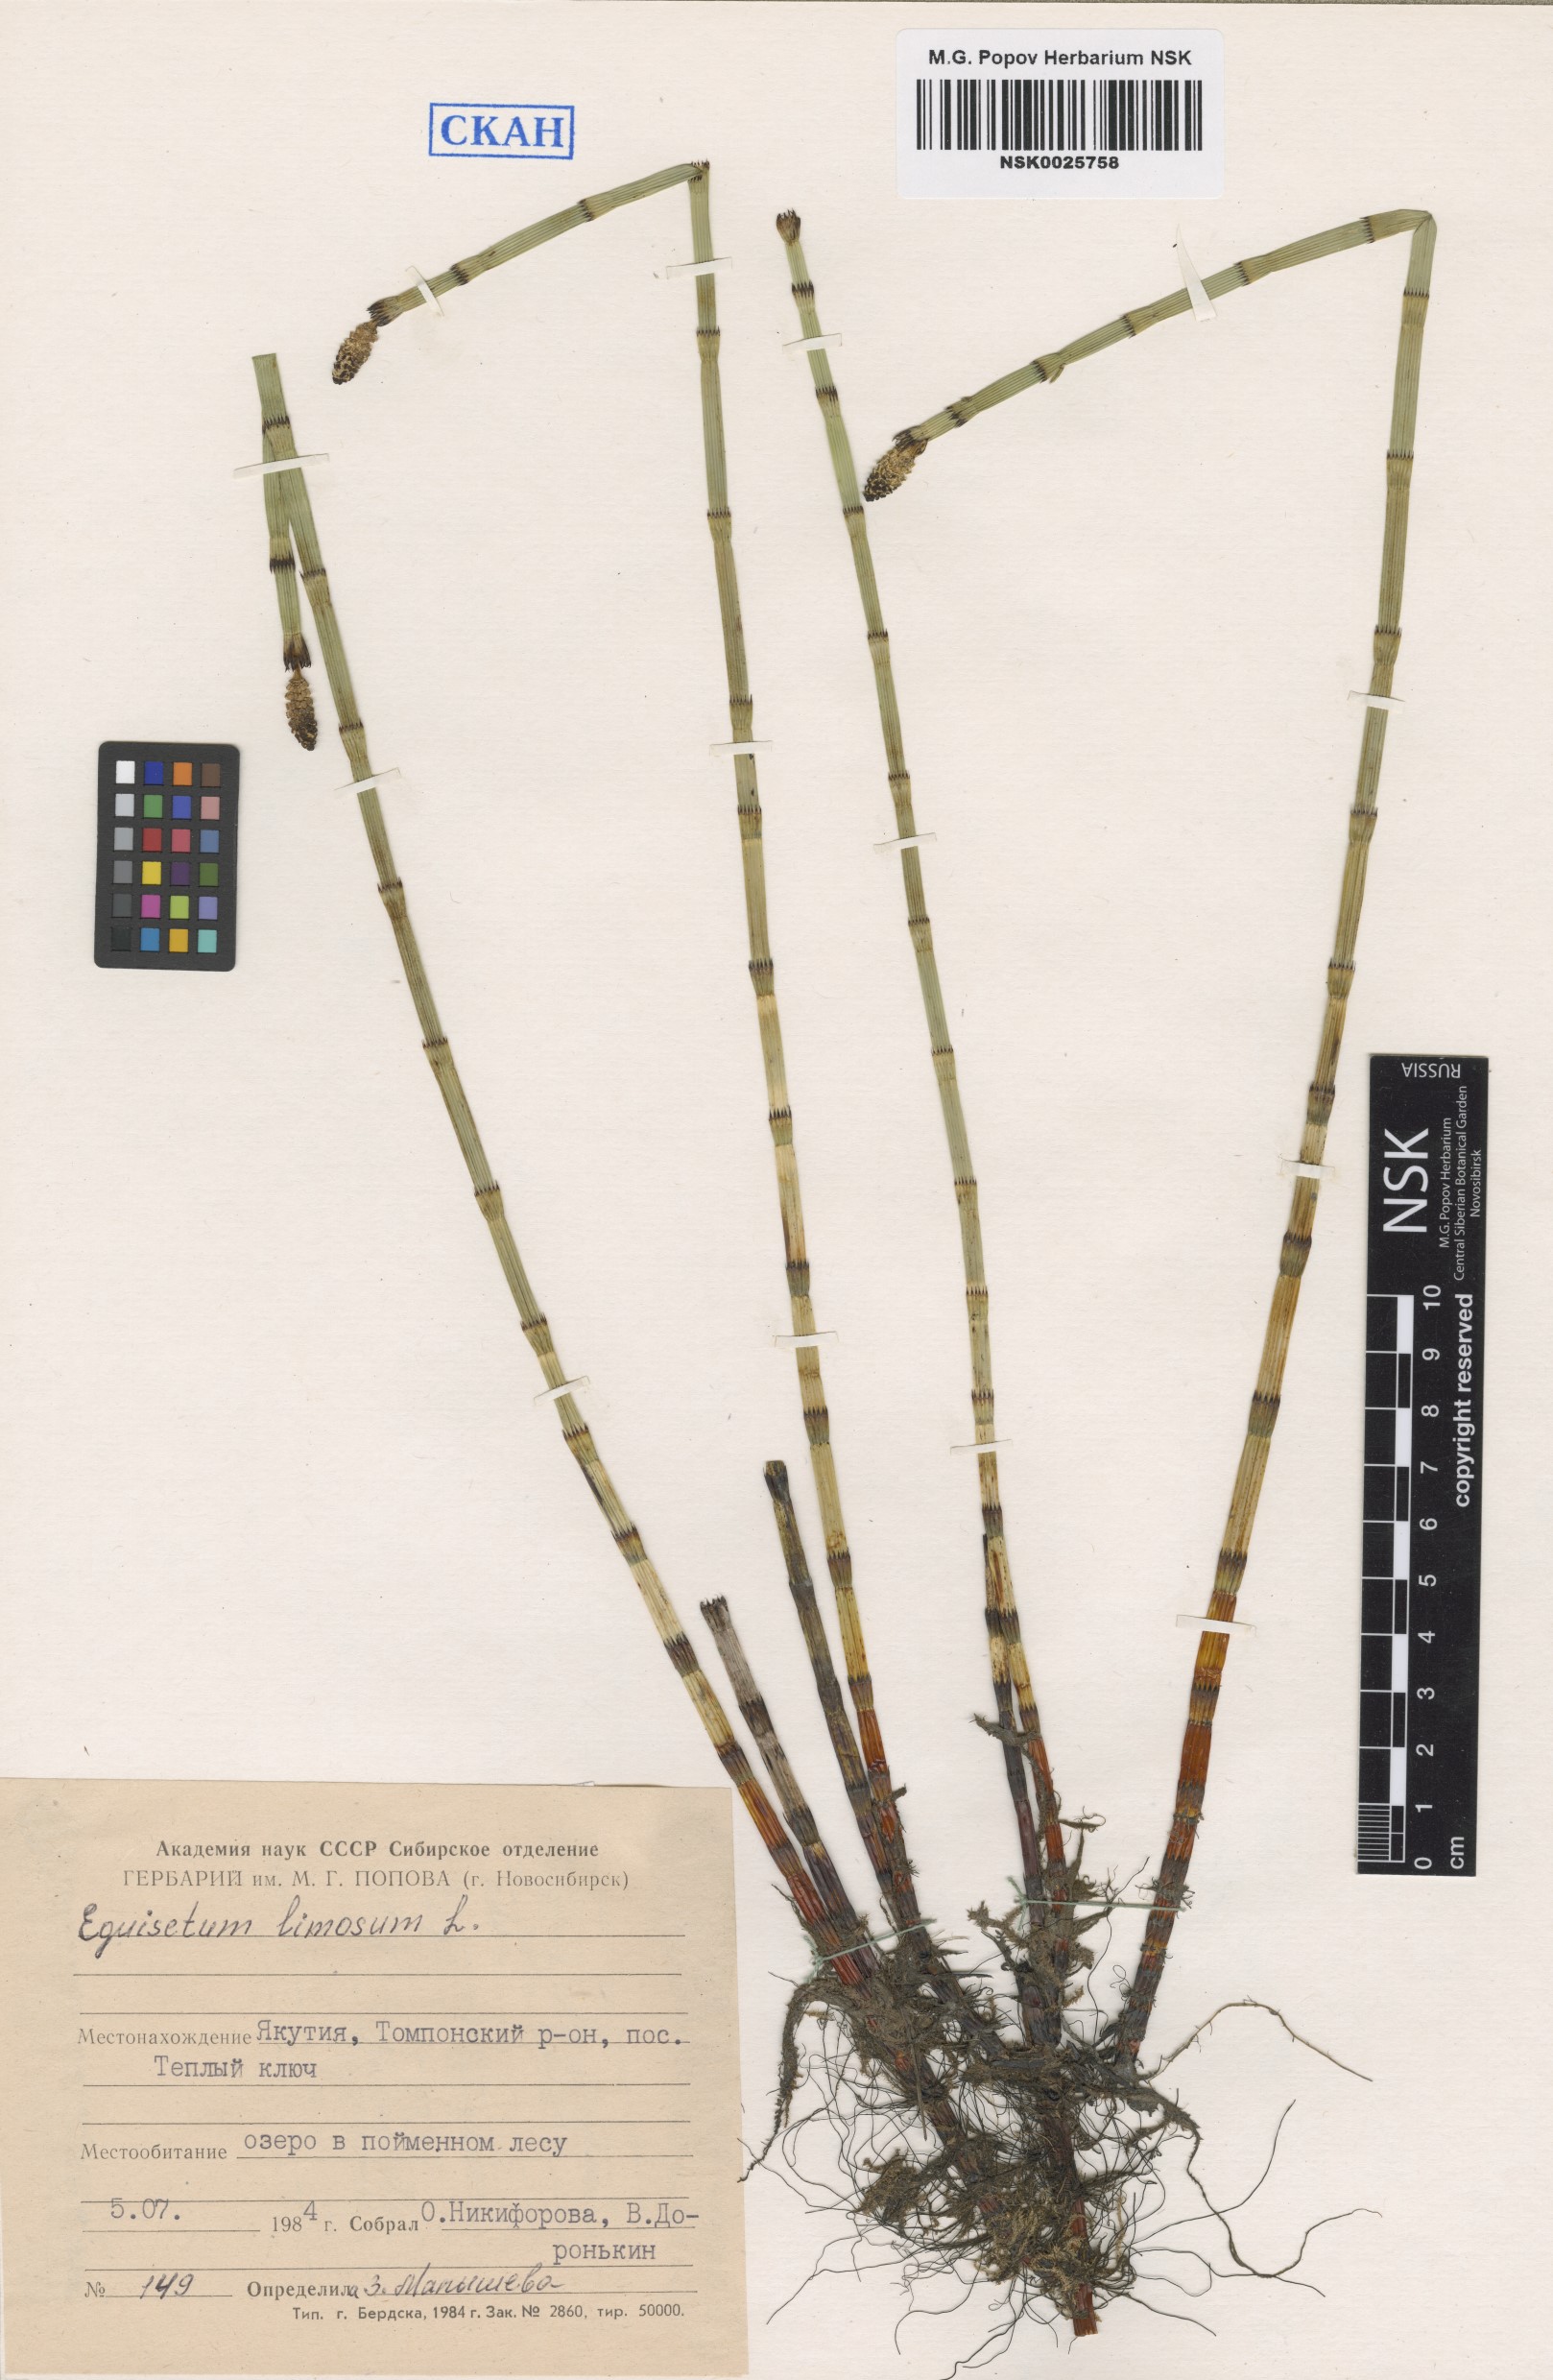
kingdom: Plantae
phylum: Tracheophyta
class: Polypodiopsida
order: Equisetales
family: Equisetaceae
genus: Equisetum
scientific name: Equisetum fluviatile
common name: Water horsetail
